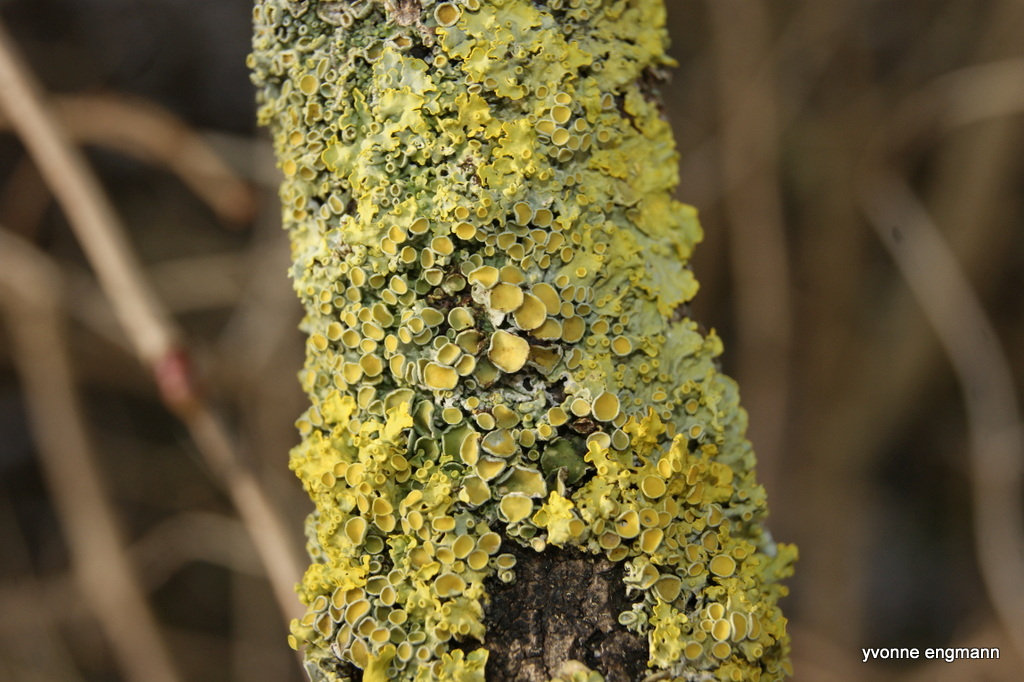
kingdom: Fungi
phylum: Ascomycota
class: Lecanoromycetes
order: Teloschistales
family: Teloschistaceae
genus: Xanthoria
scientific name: Xanthoria parietina
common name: almindelig væggelav
